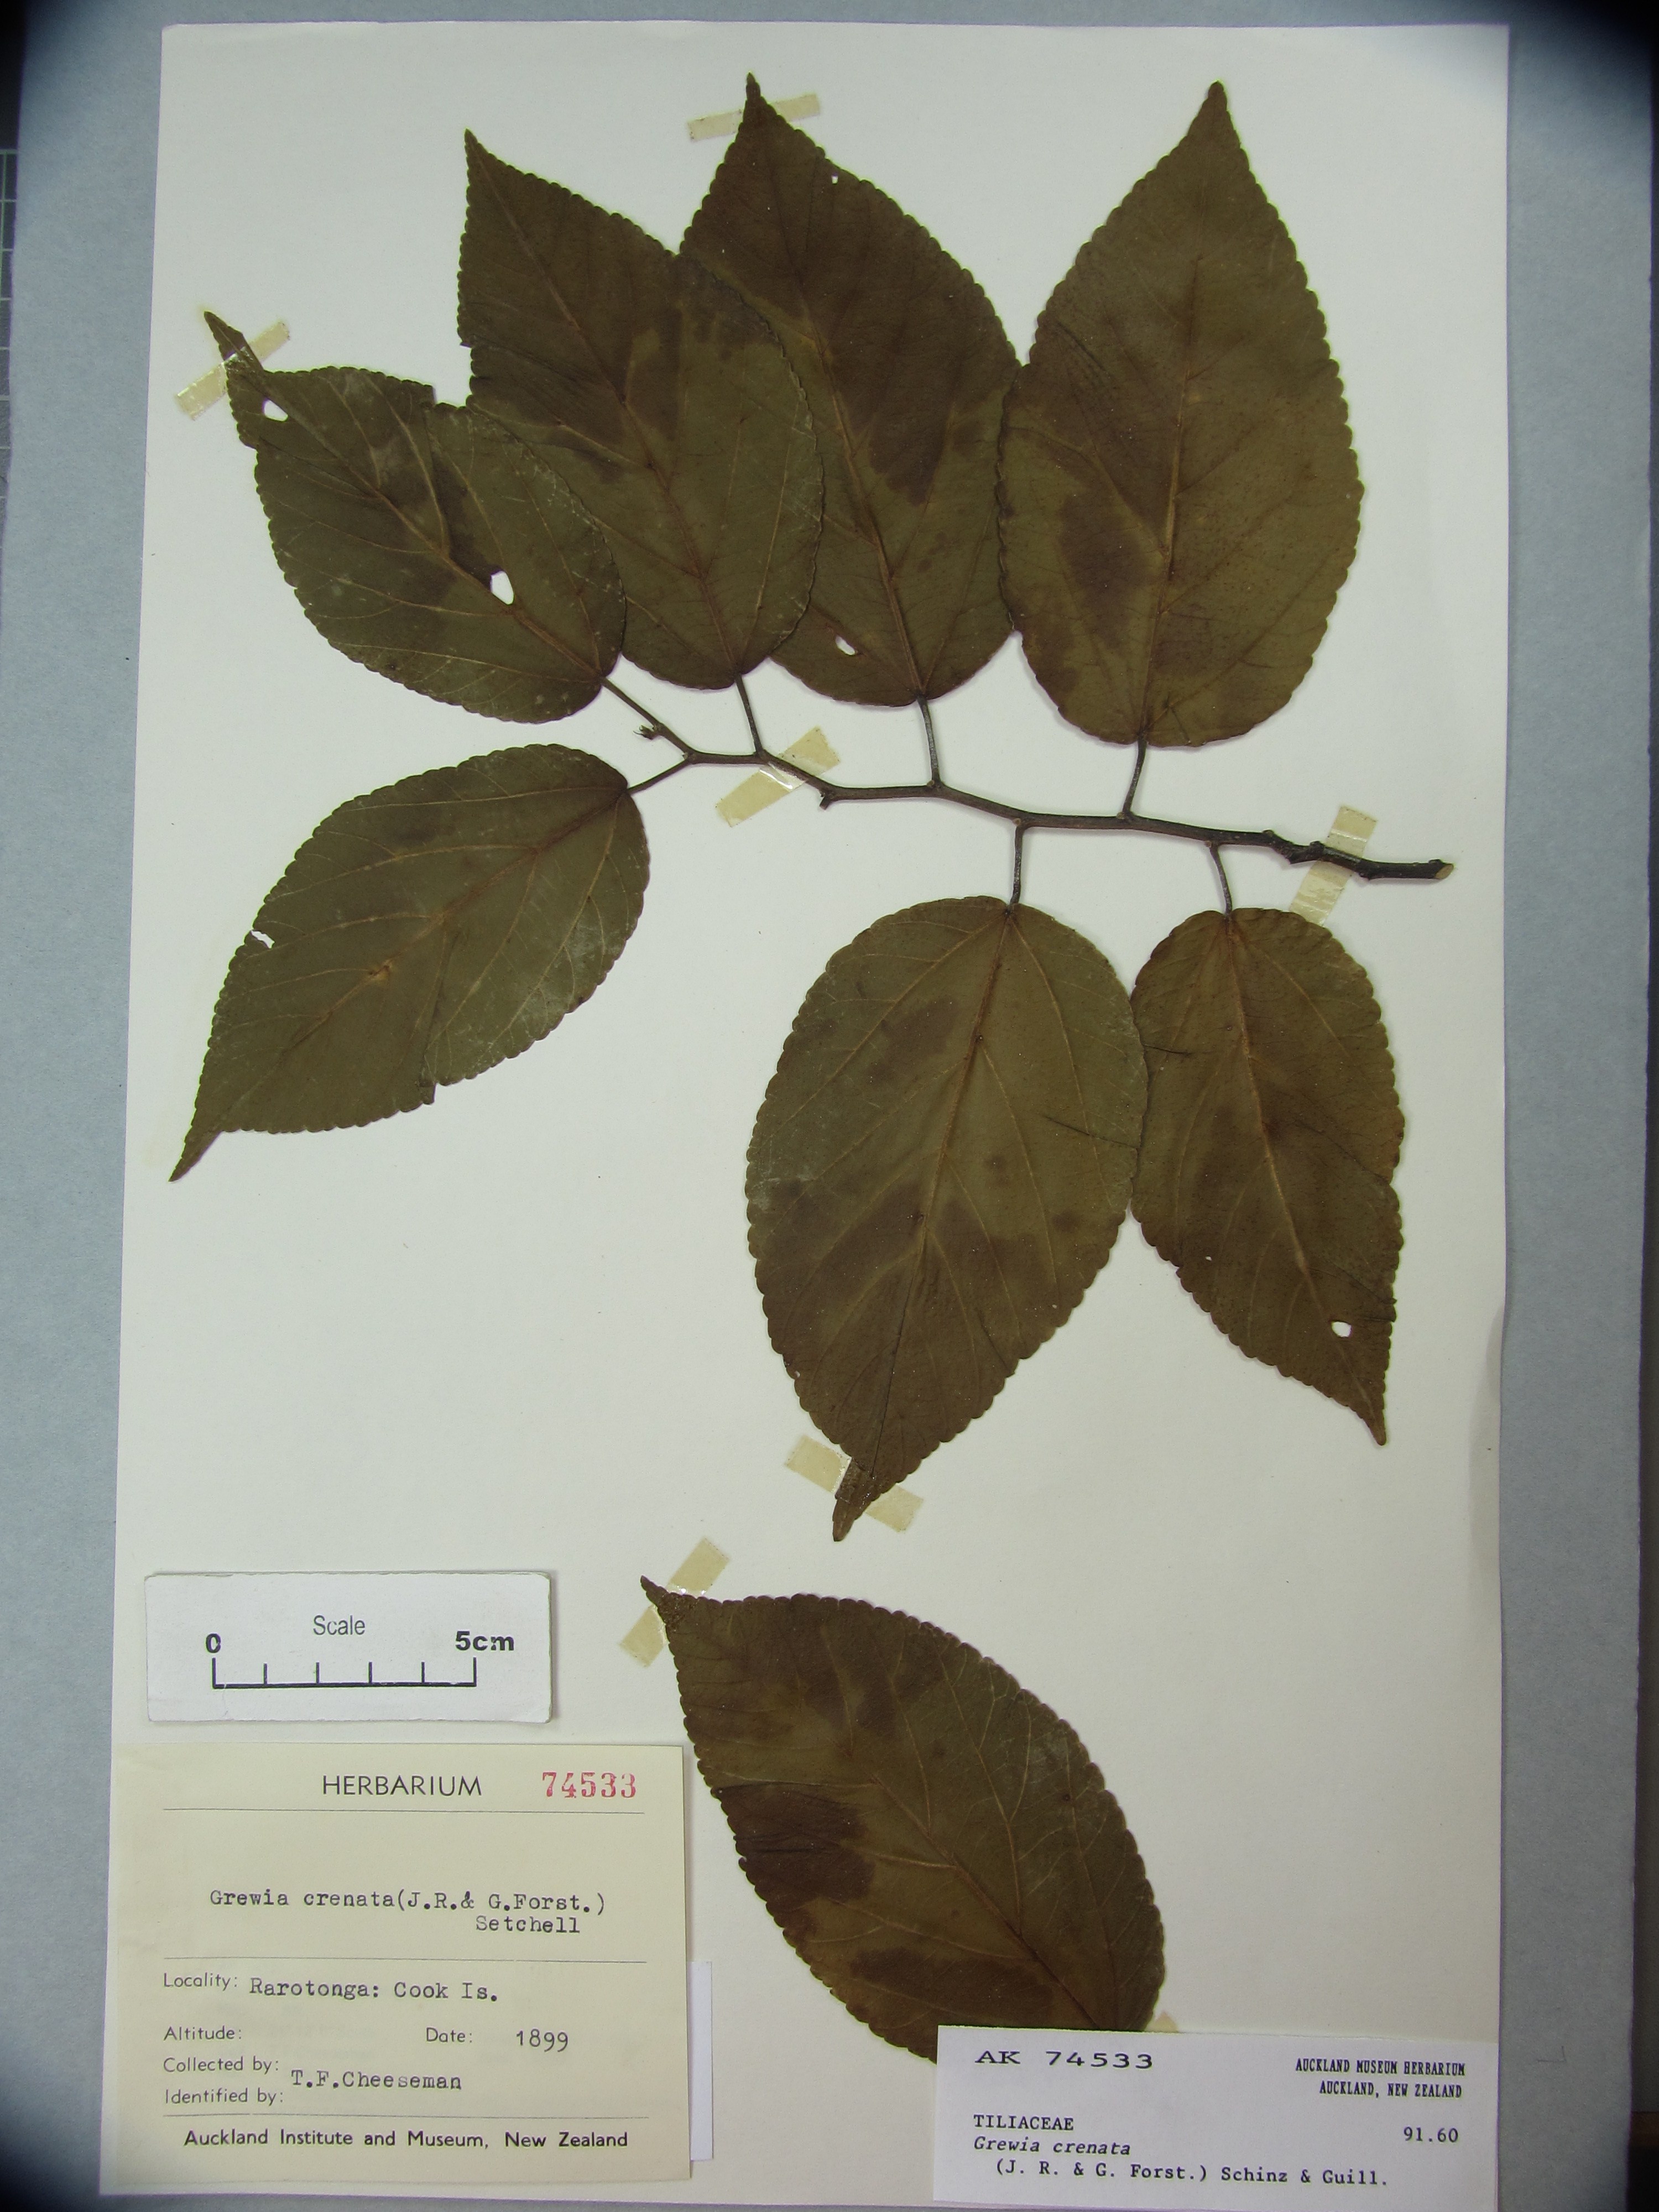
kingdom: Plantae
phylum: Tracheophyta
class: Magnoliopsida
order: Malvales
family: Malvaceae
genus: Grewia
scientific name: Grewia crenata
